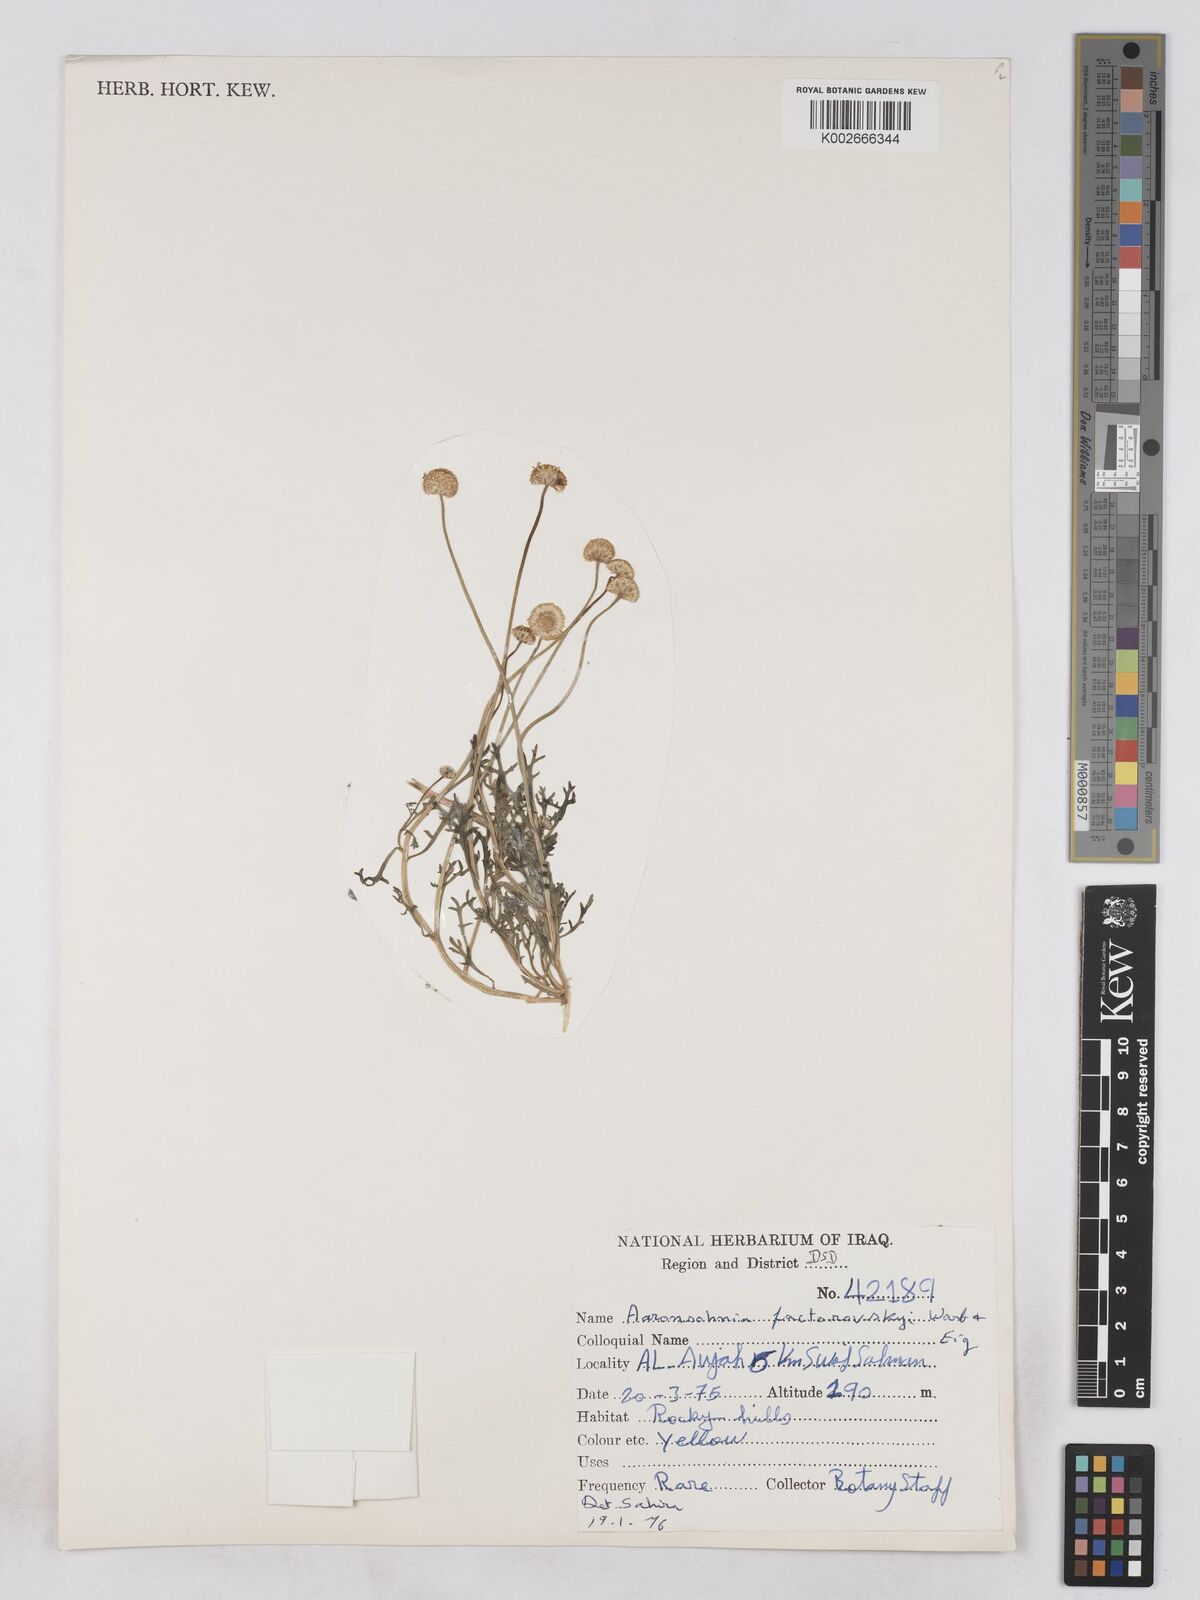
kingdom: Plantae
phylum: Tracheophyta
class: Magnoliopsida
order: Asterales
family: Asteraceae
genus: Otoglyphis
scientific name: Otoglyphis factorovskyi
